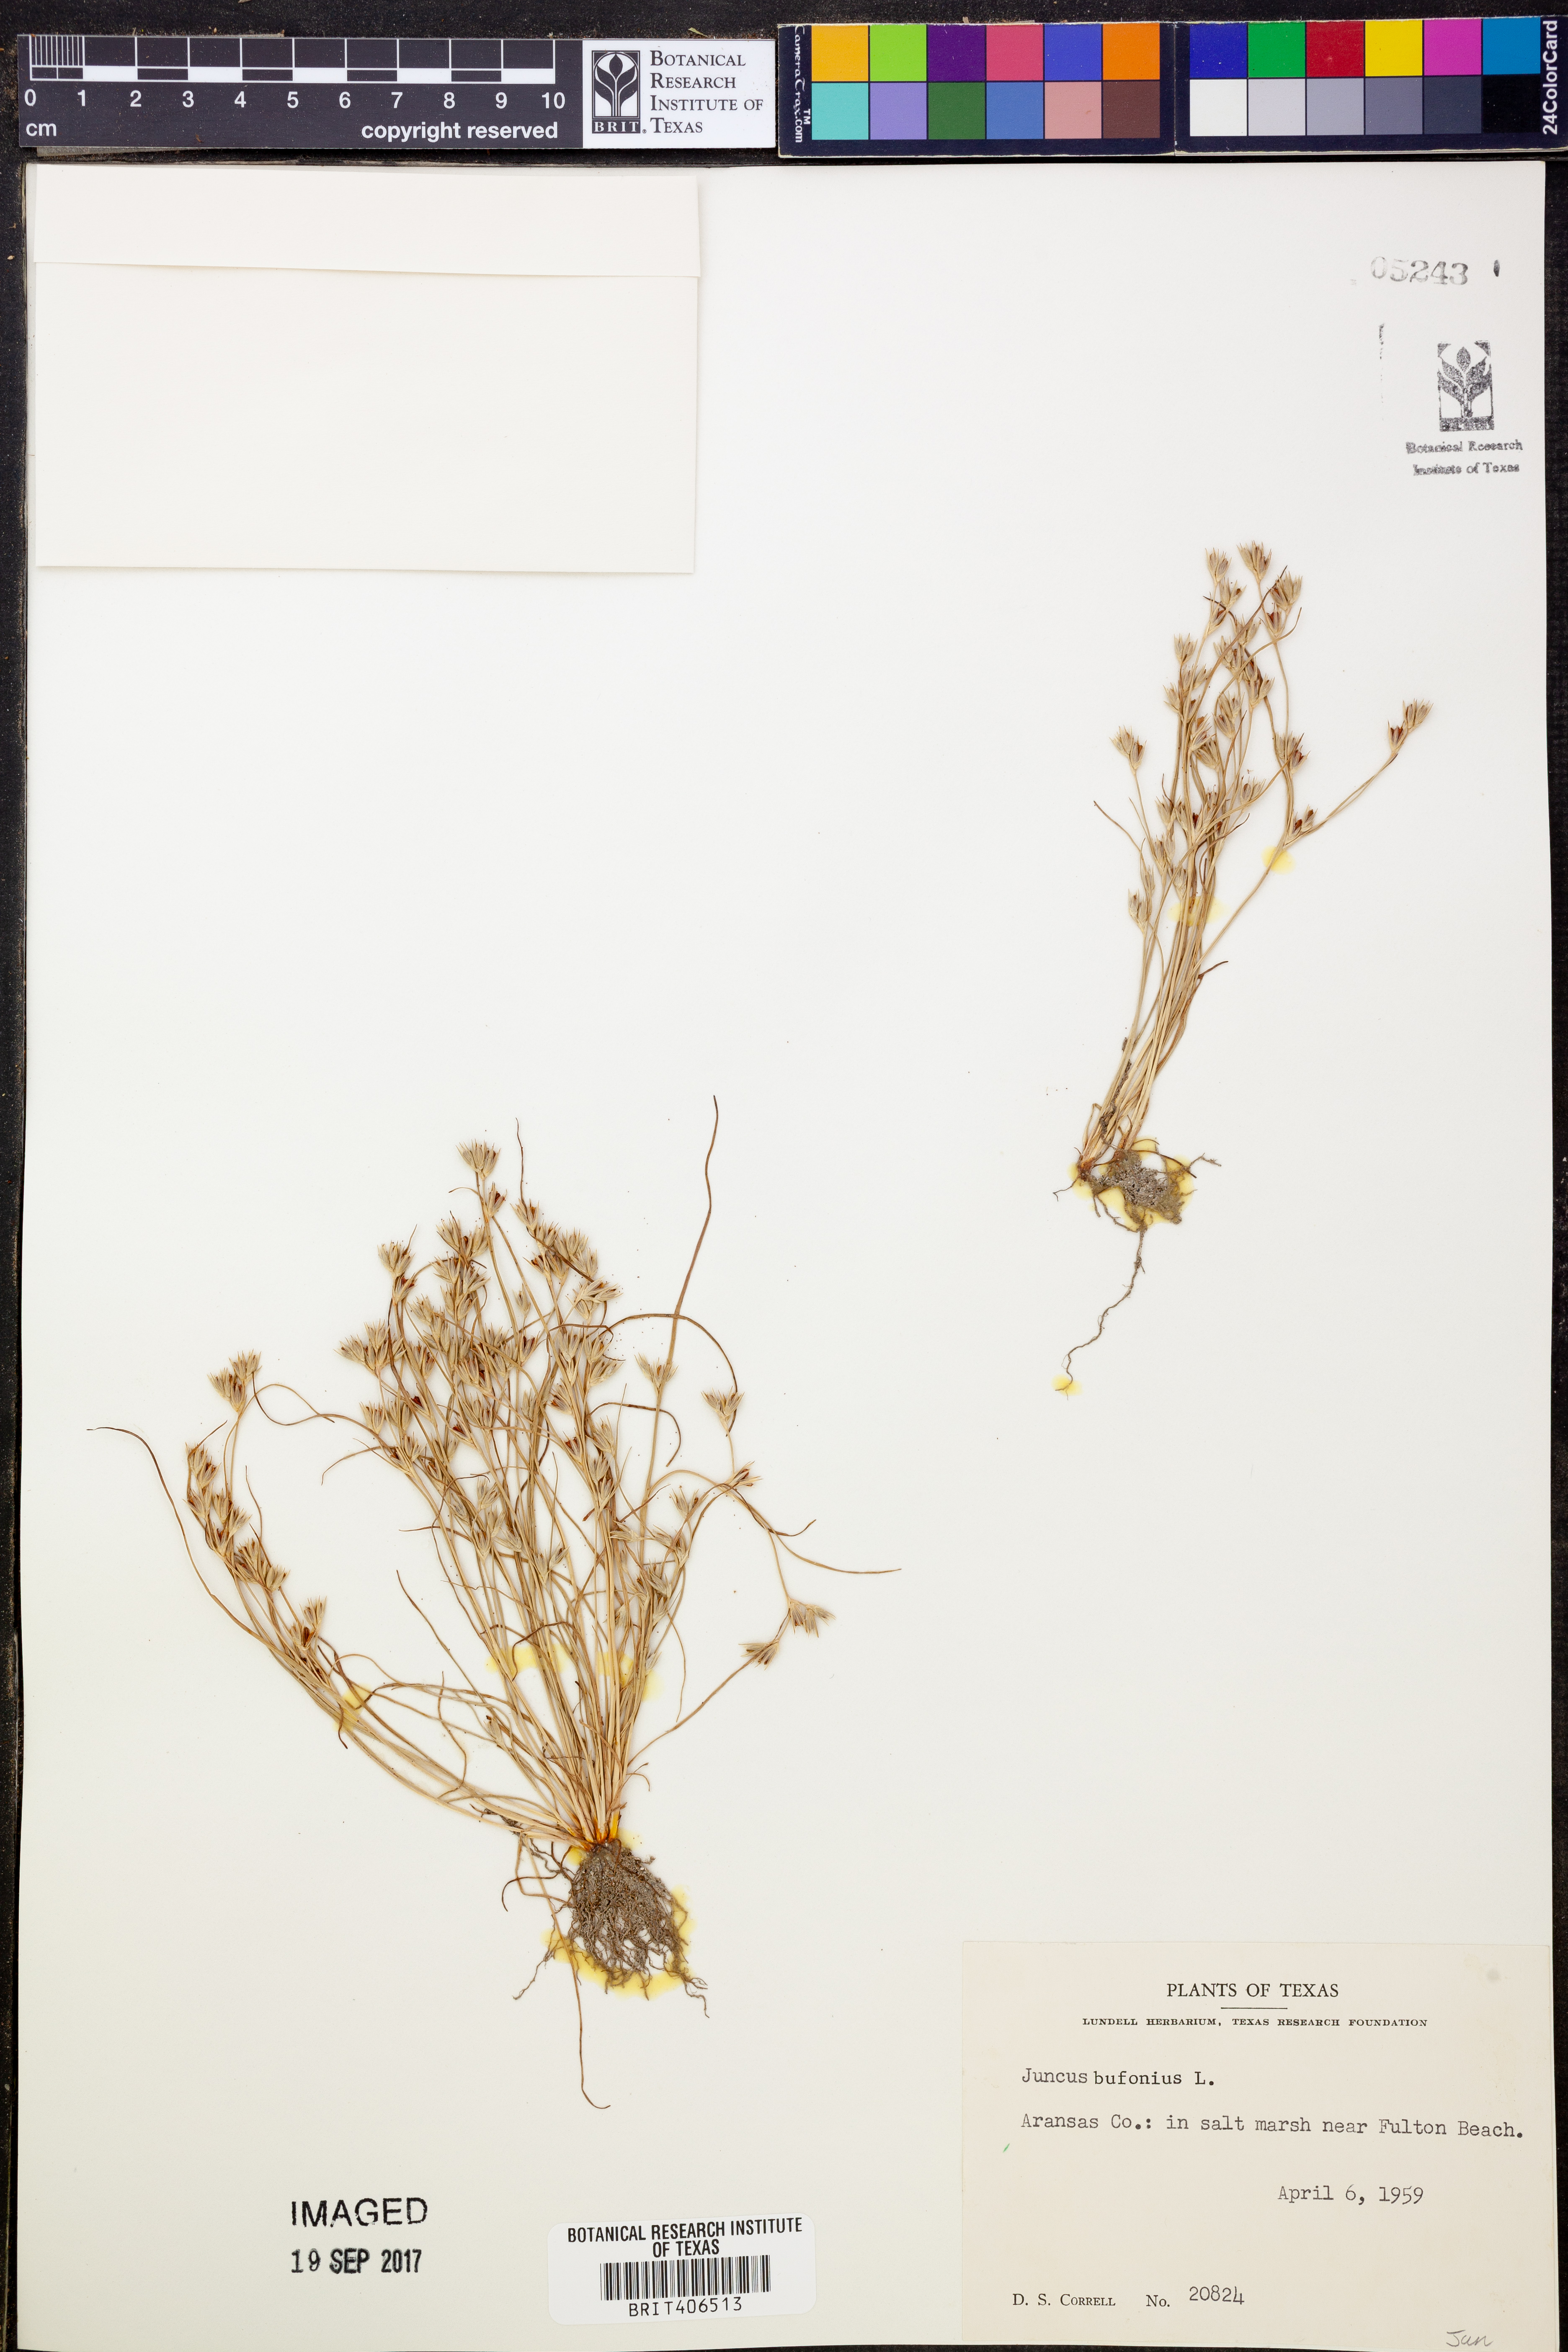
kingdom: Plantae
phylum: Tracheophyta
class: Liliopsida
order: Poales
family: Juncaceae
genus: Juncus
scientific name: Juncus bufonius
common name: Toad rush
